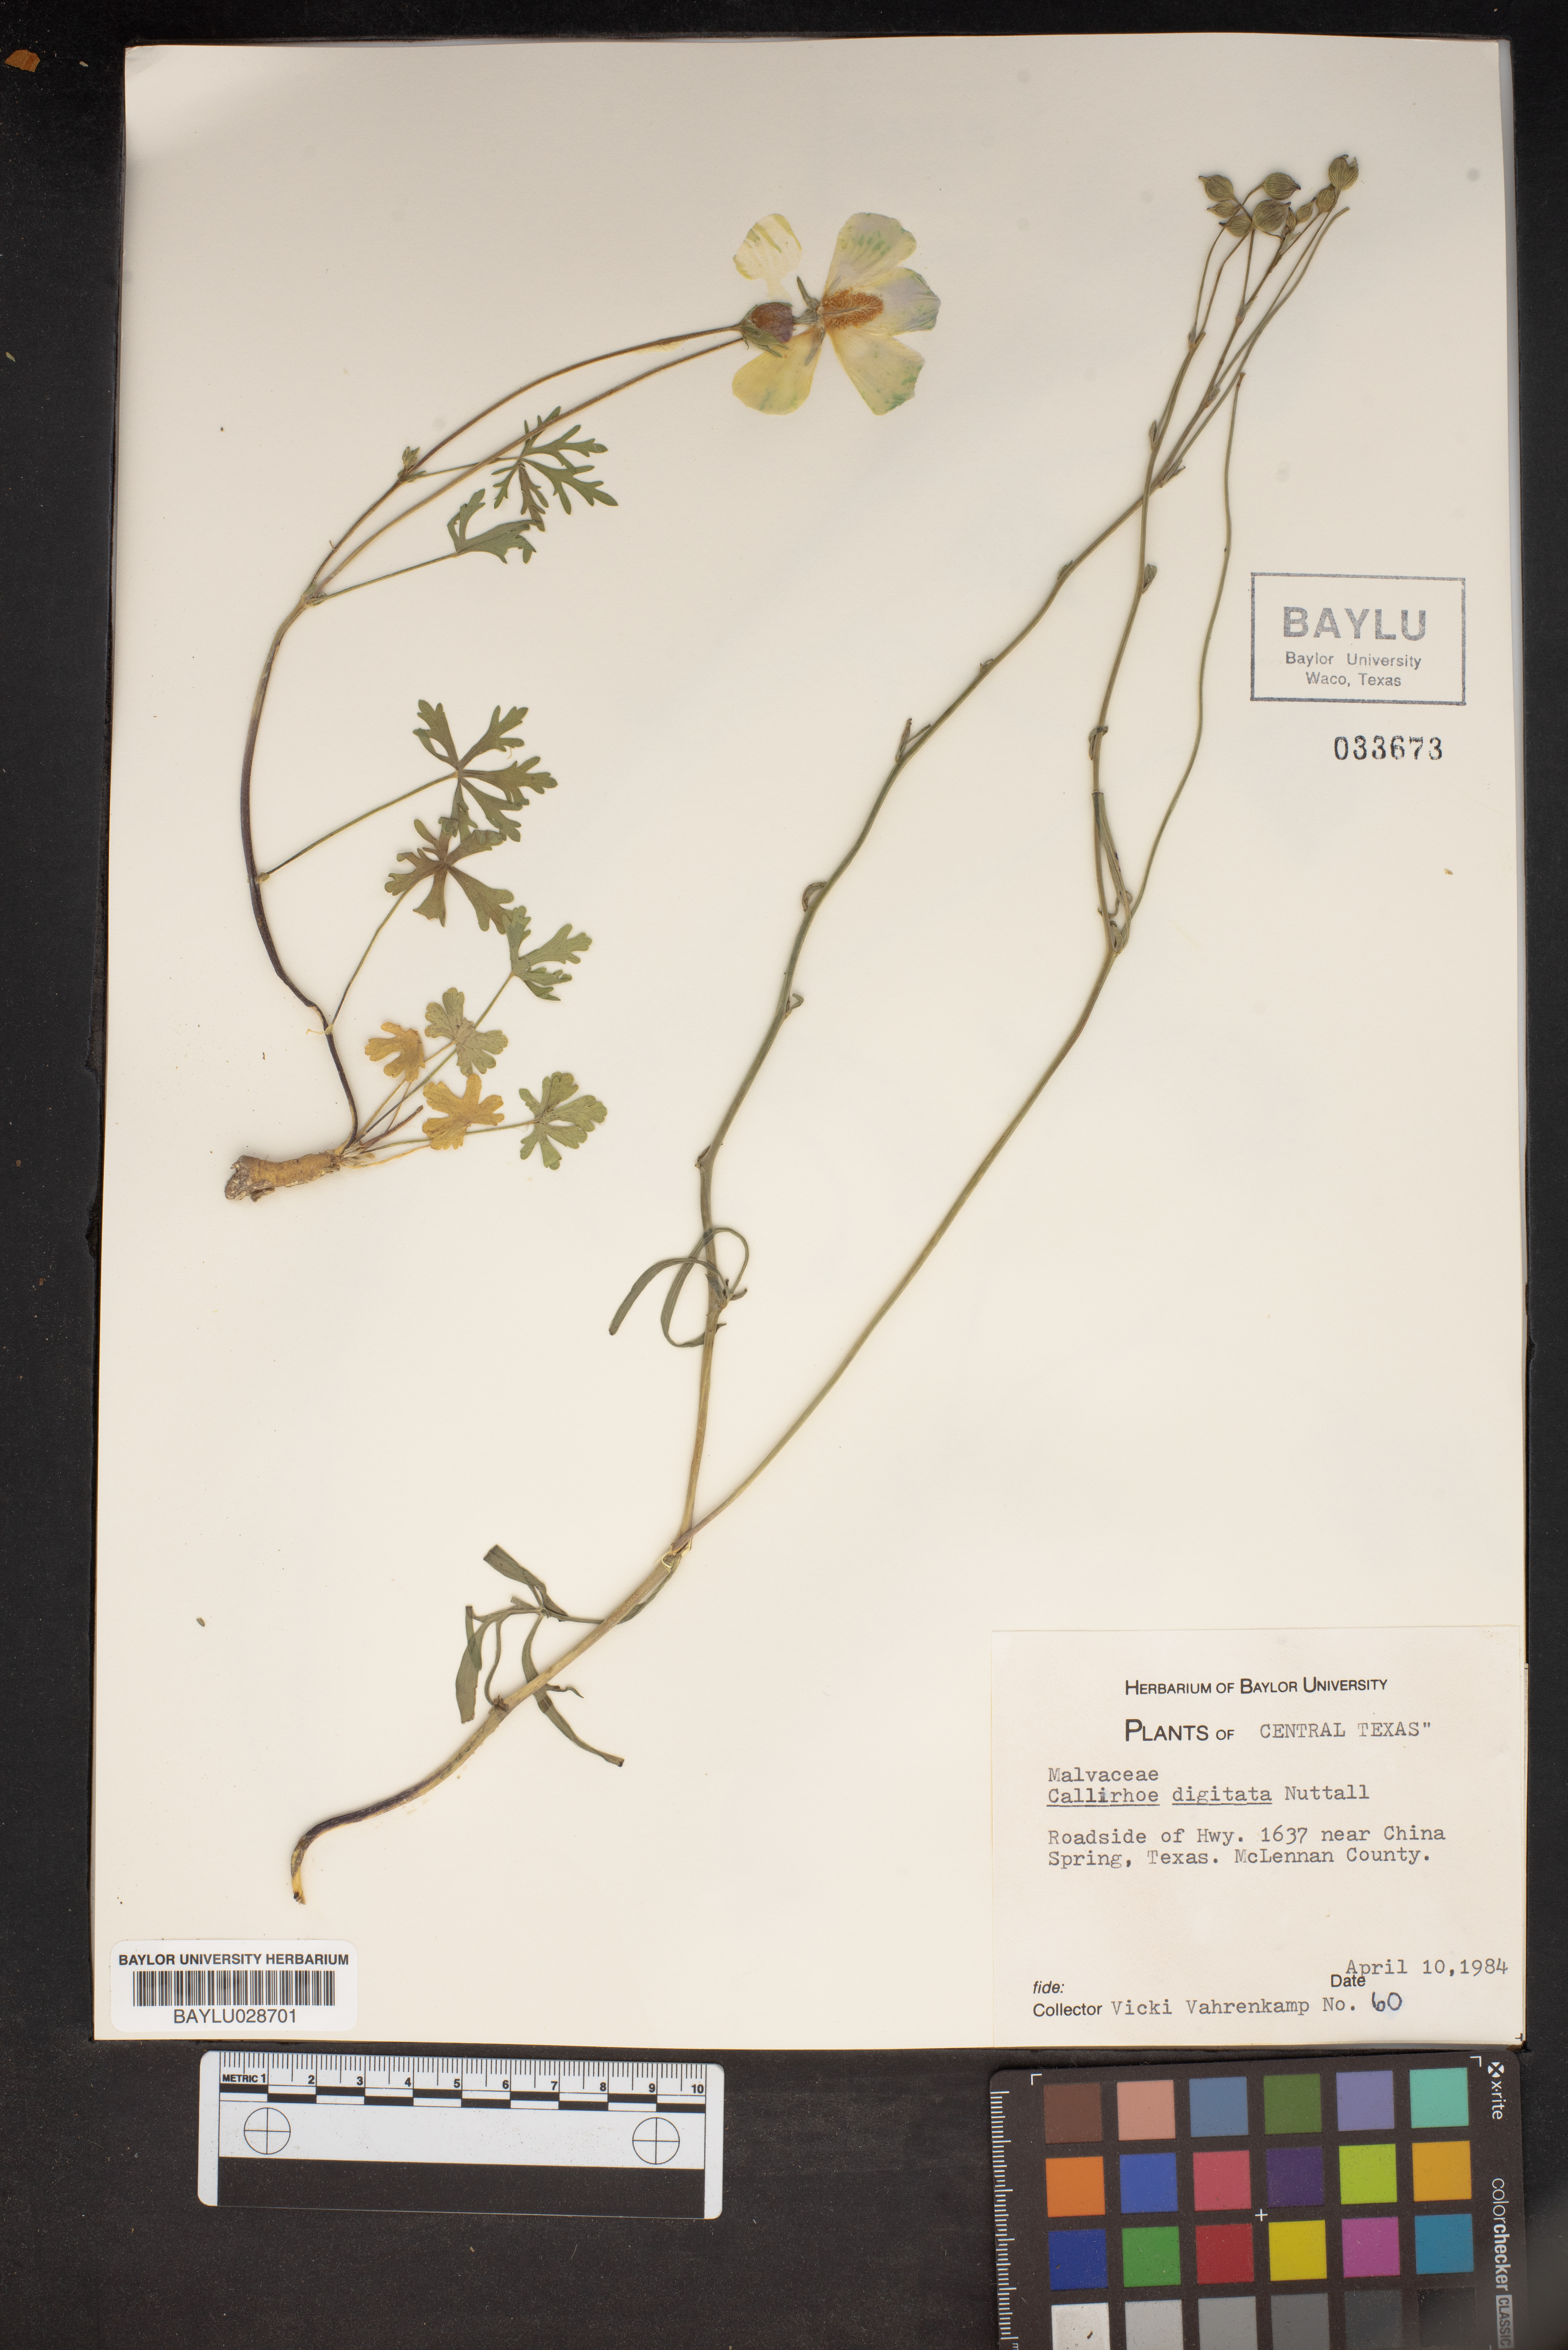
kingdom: Plantae
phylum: Tracheophyta
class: Magnoliopsida
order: Malvales
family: Malvaceae
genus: Callirhoe
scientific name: Callirhoe digitata
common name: Finger poppy-mallow
